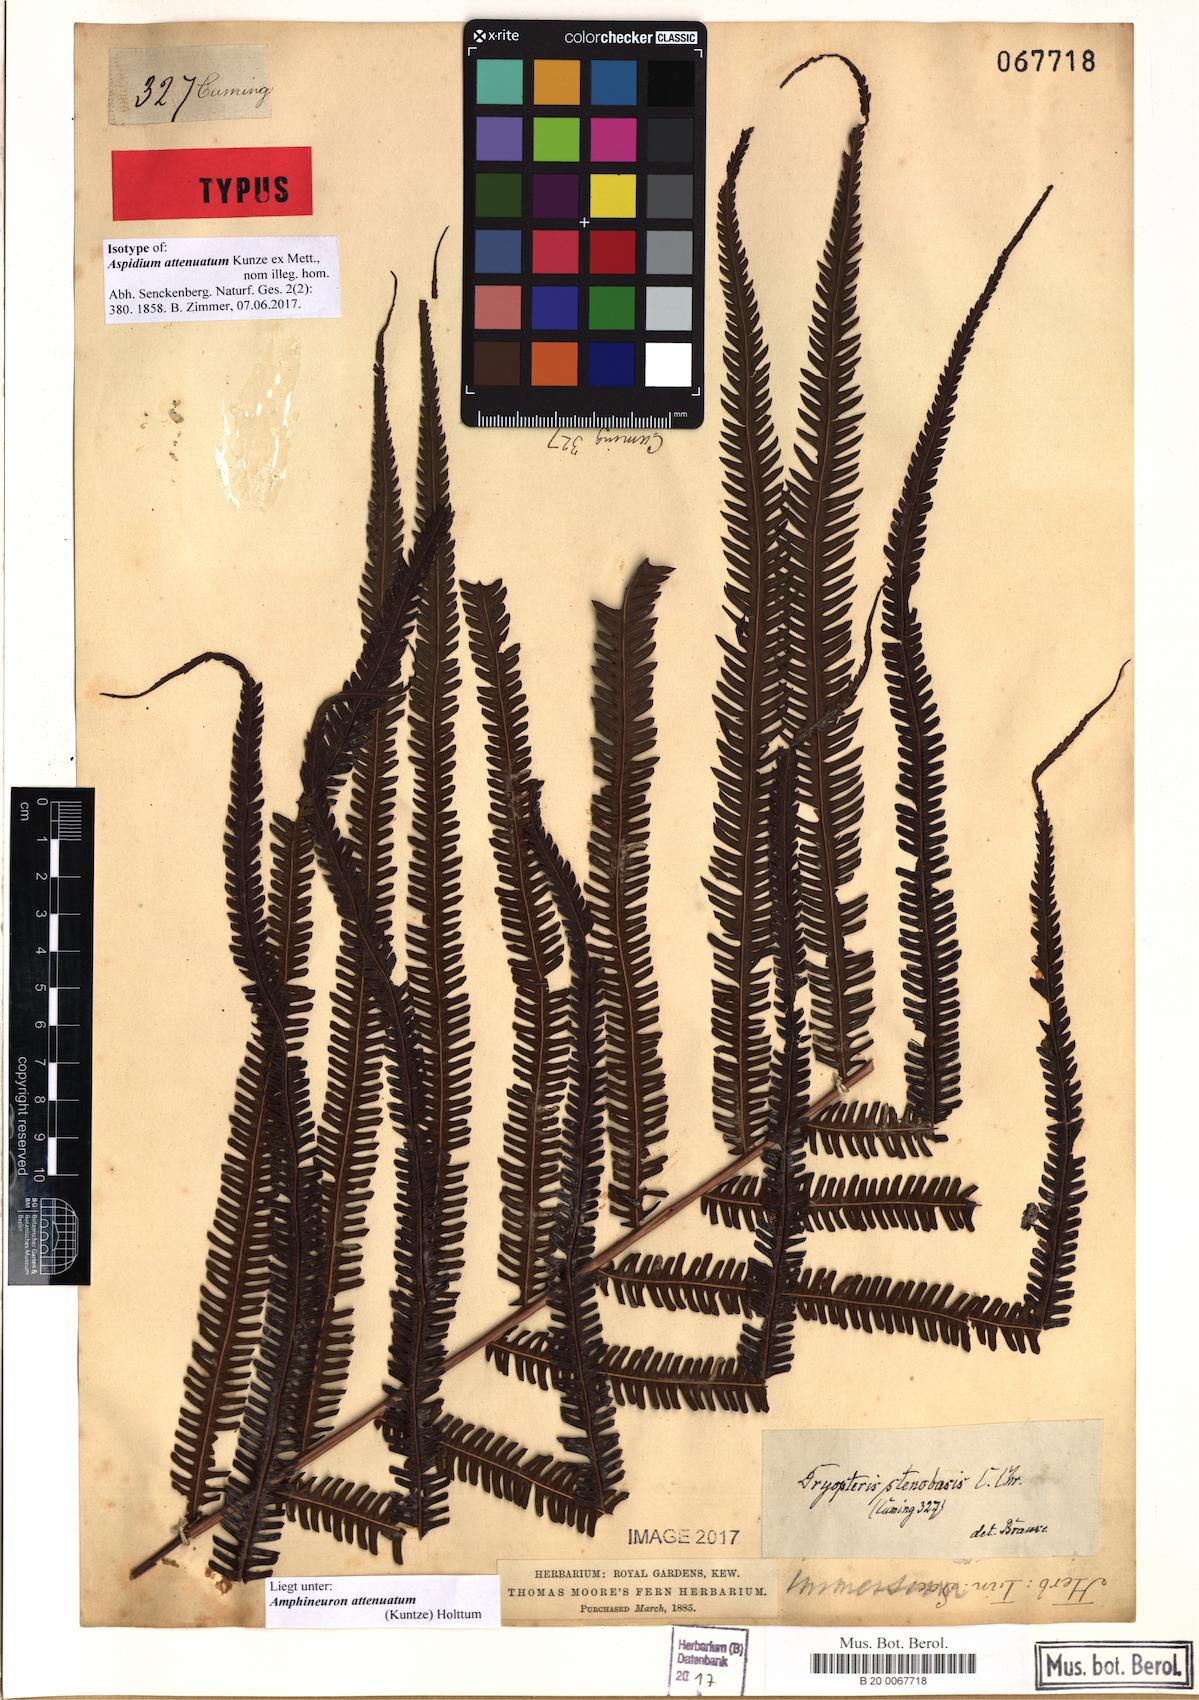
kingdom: Plantae
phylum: Tracheophyta
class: Polypodiopsida
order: Polypodiales
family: Thelypteridaceae
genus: Mesopteris
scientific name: Mesopteris attenuata
